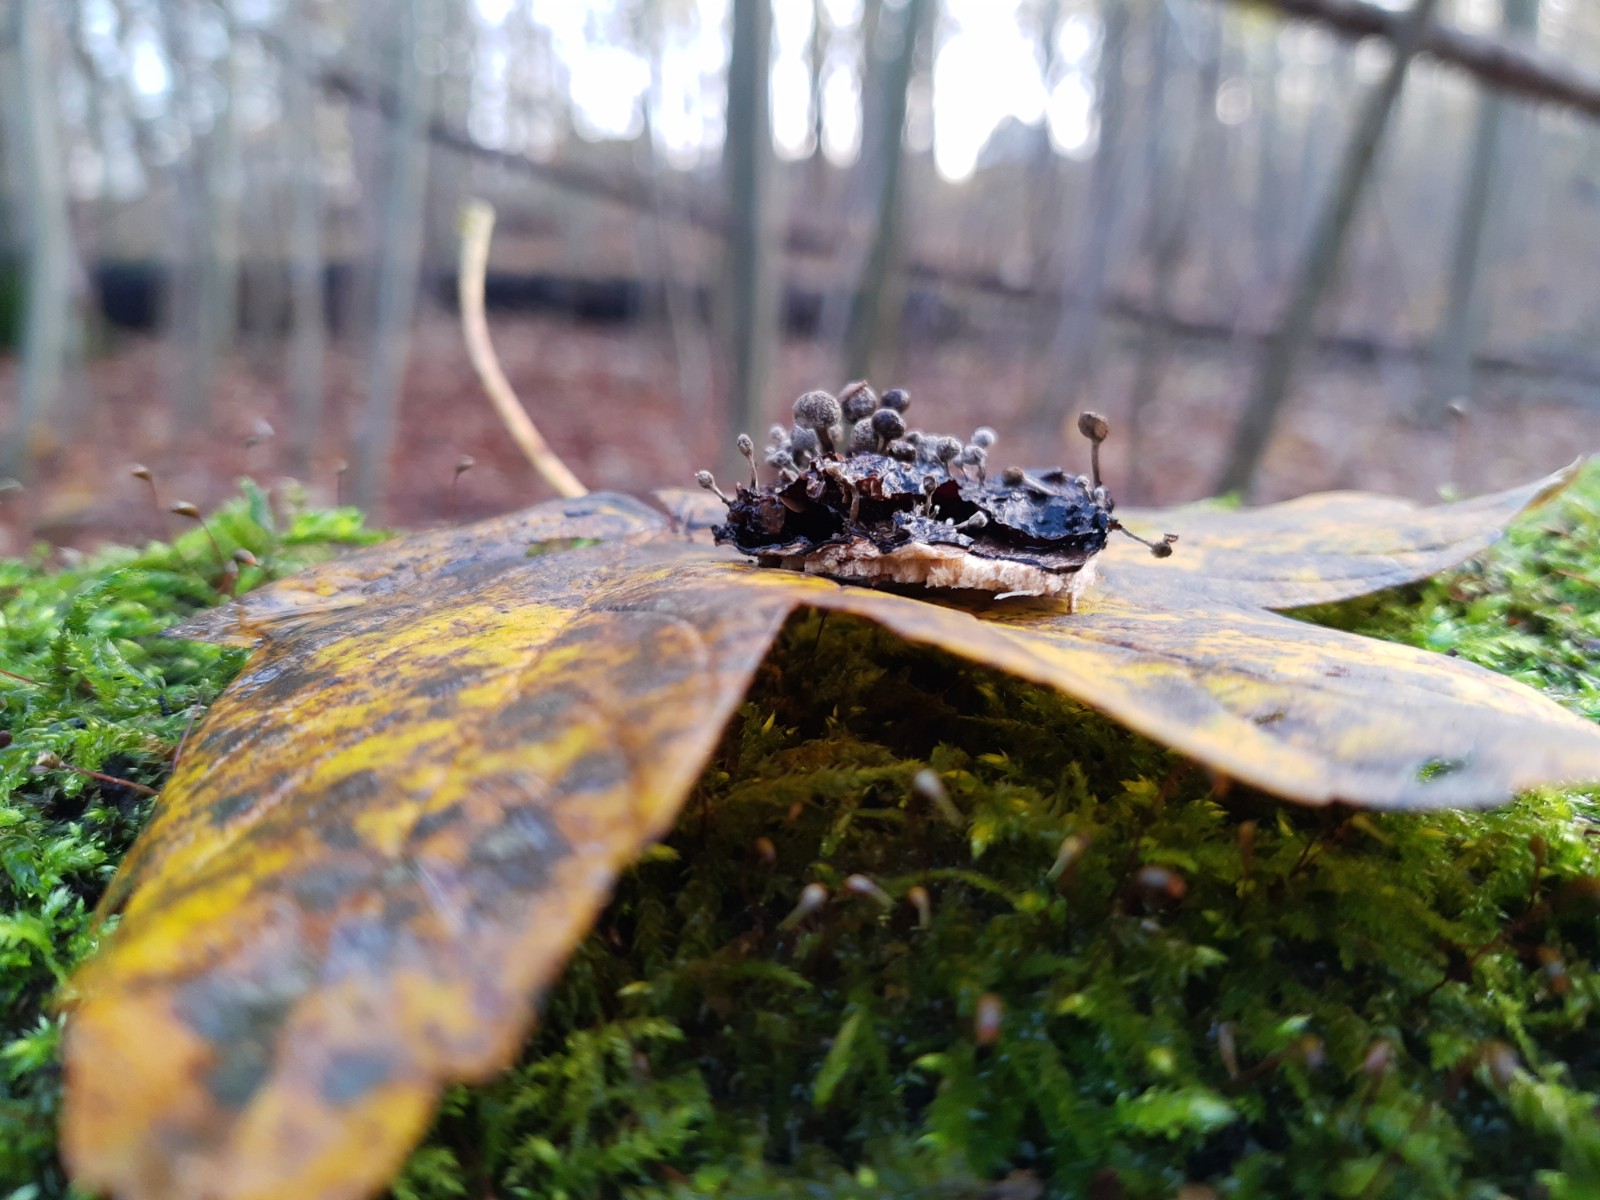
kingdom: Fungi
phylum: Basidiomycota
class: Atractiellomycetes
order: Atractiellales
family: Phleogenaceae
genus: Phleogena
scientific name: Phleogena faginea
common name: pudderkølle
